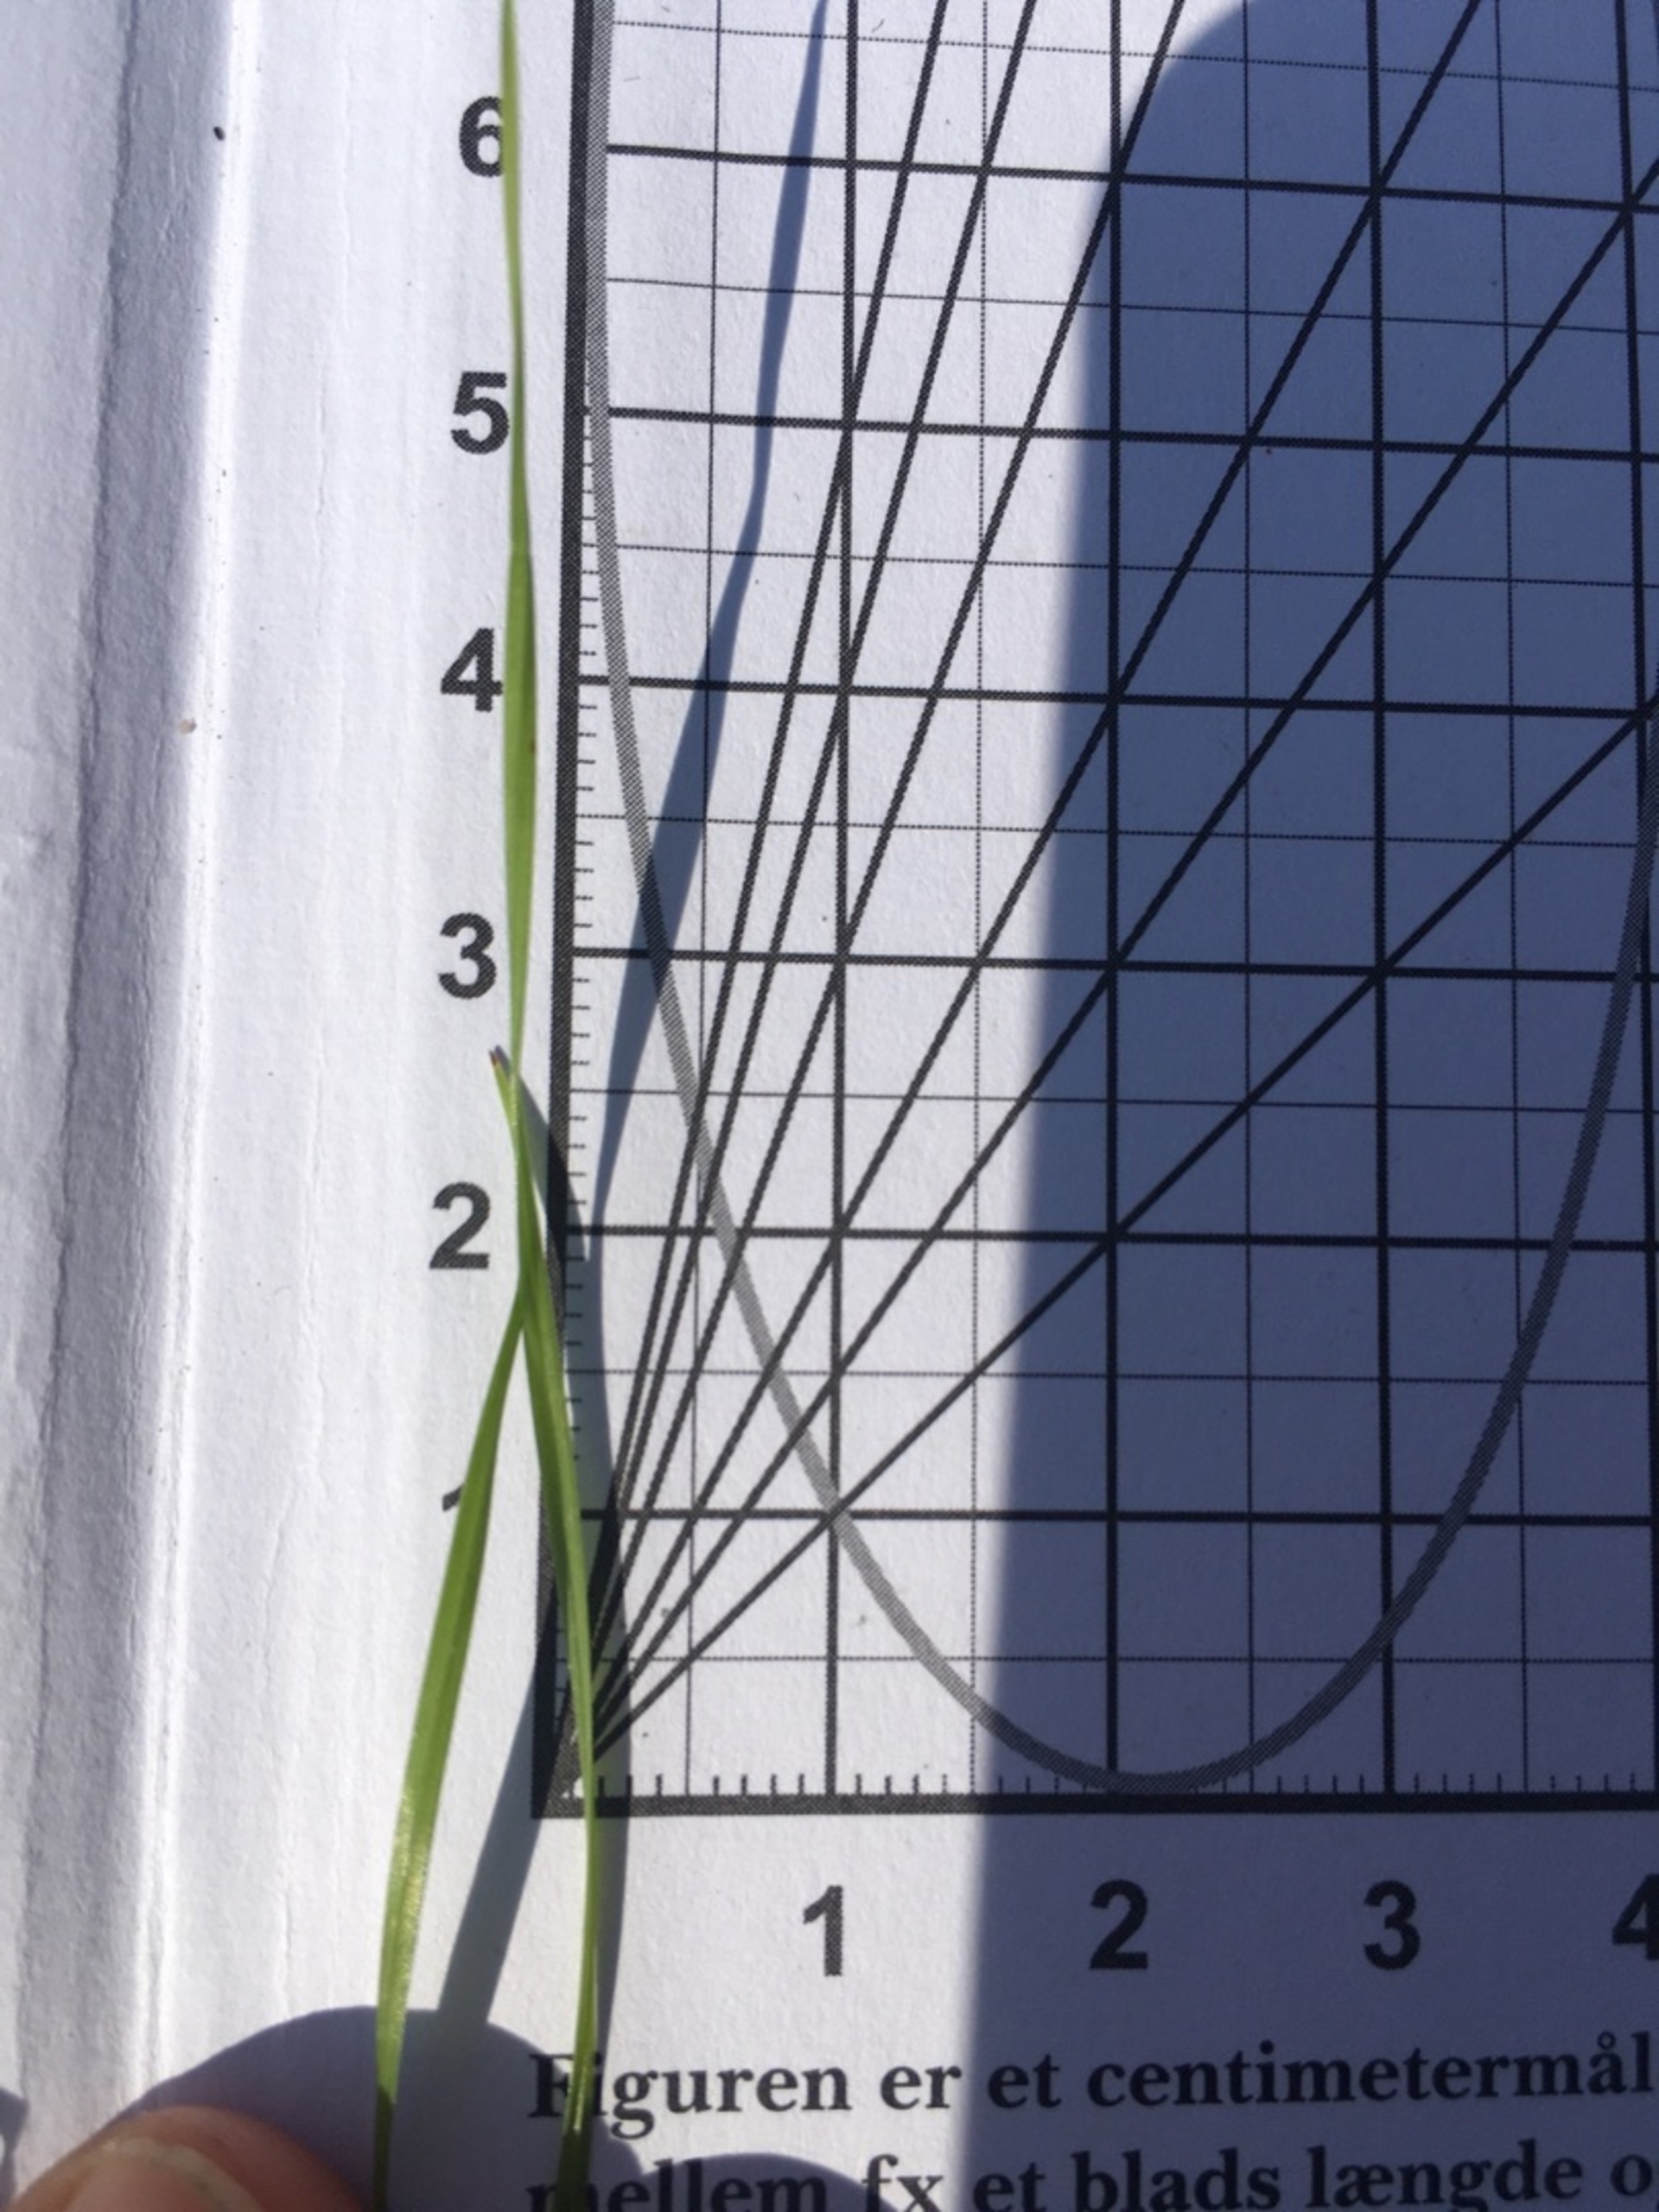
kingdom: Plantae
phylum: Tracheophyta
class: Liliopsida
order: Poales
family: Poaceae
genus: Cynosurus
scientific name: Cynosurus cristatus
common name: Kamgræs
